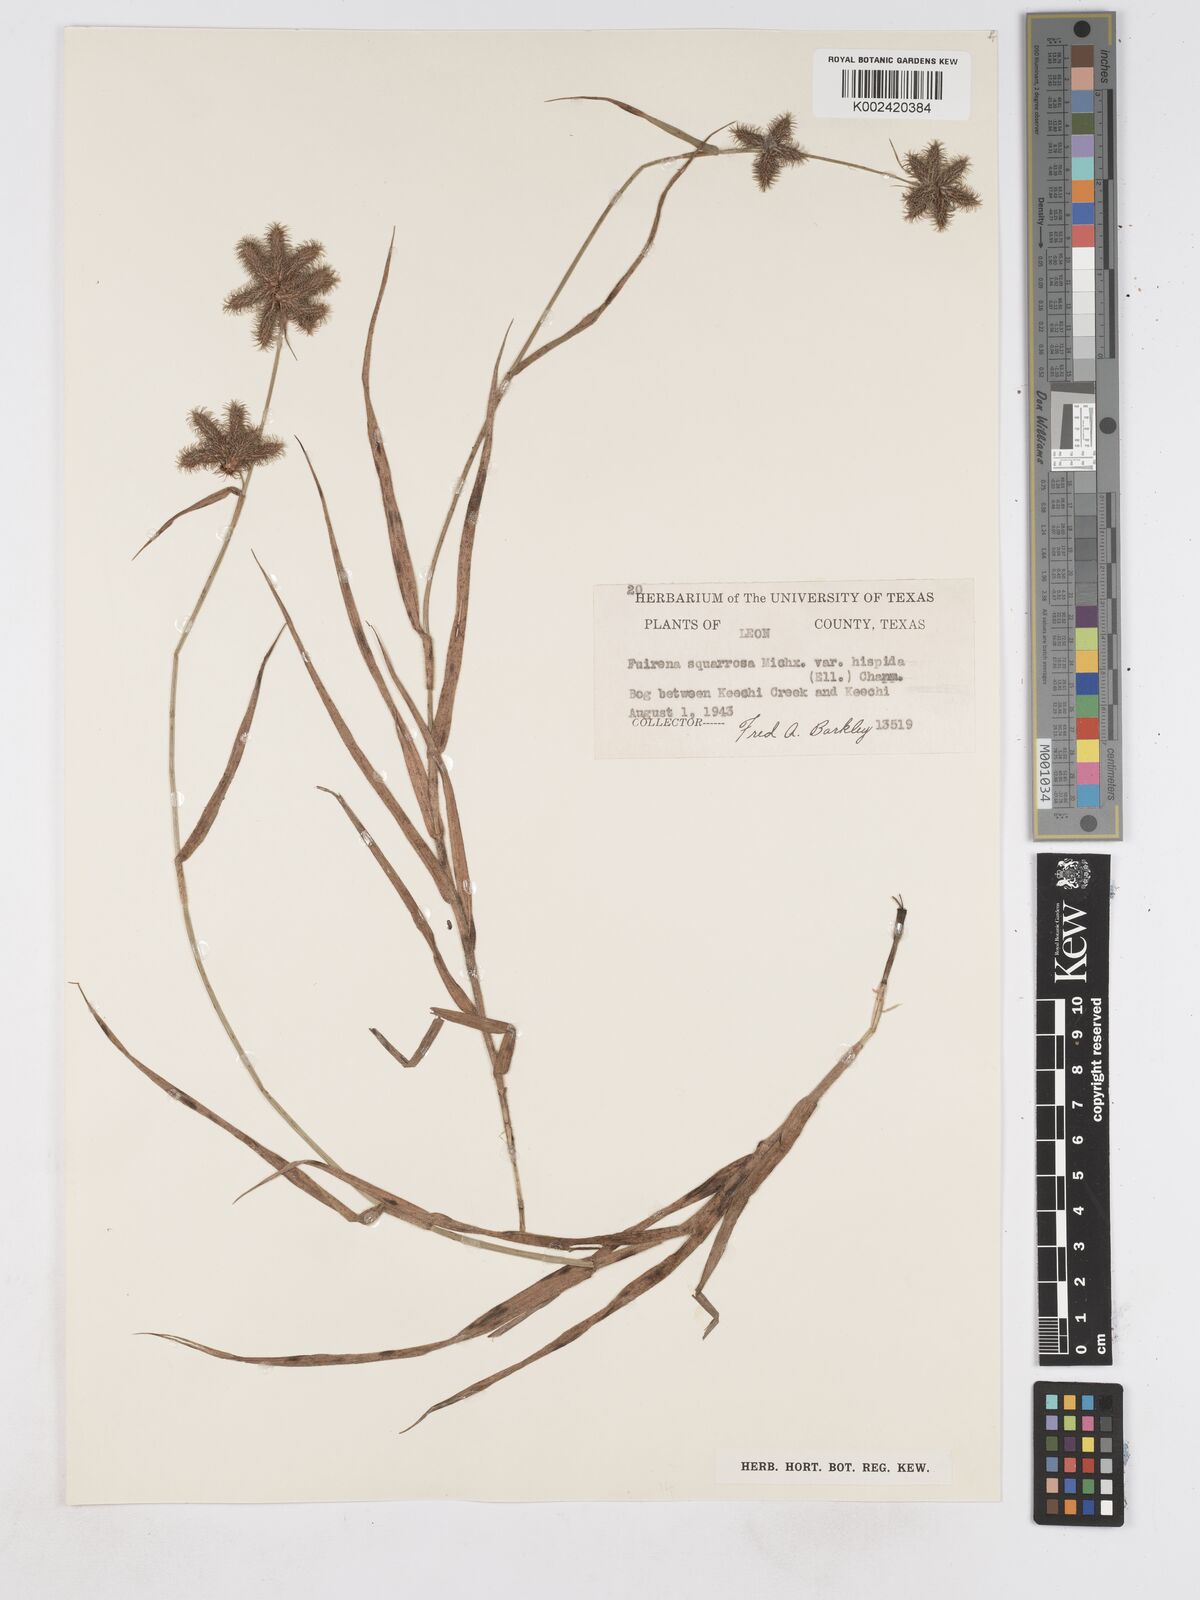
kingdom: Plantae
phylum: Tracheophyta
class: Liliopsida
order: Poales
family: Cyperaceae
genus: Fuirena
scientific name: Fuirena squarrosa
